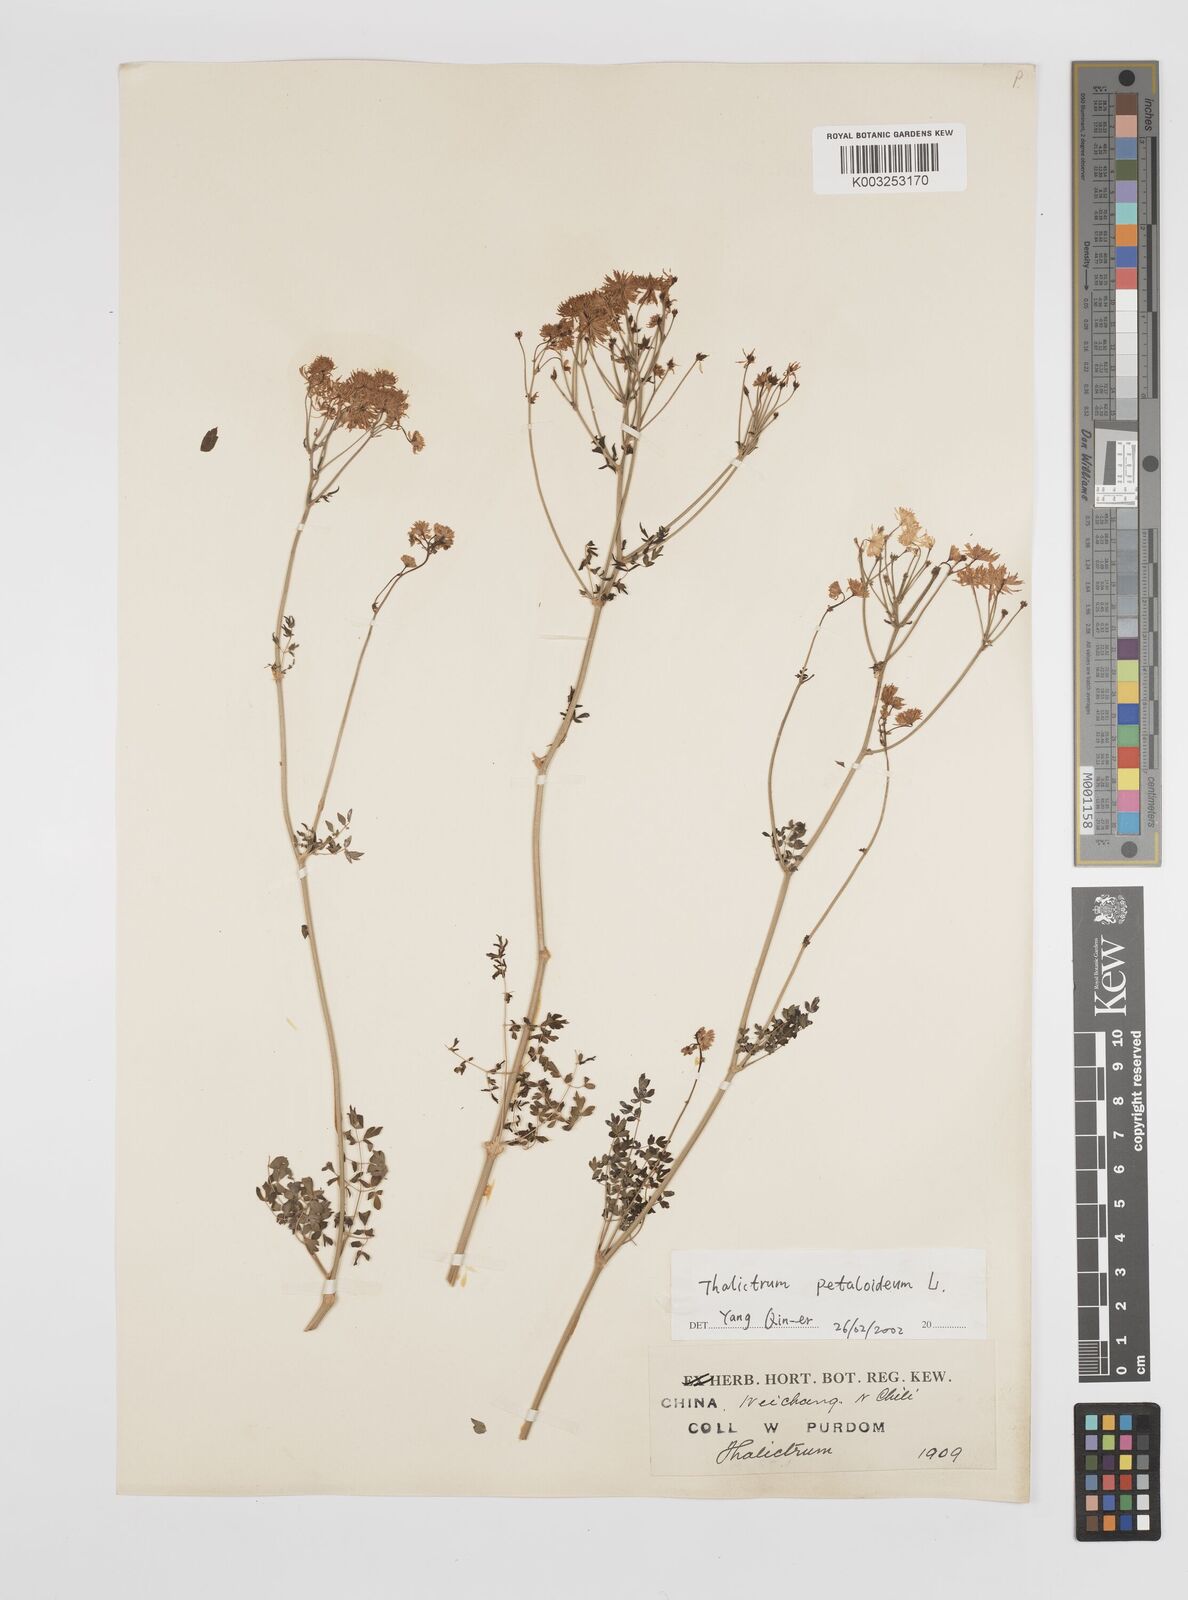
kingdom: Plantae
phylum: Tracheophyta
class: Magnoliopsida
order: Ranunculales
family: Ranunculaceae
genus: Thalictrum
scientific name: Thalictrum petaloideum
